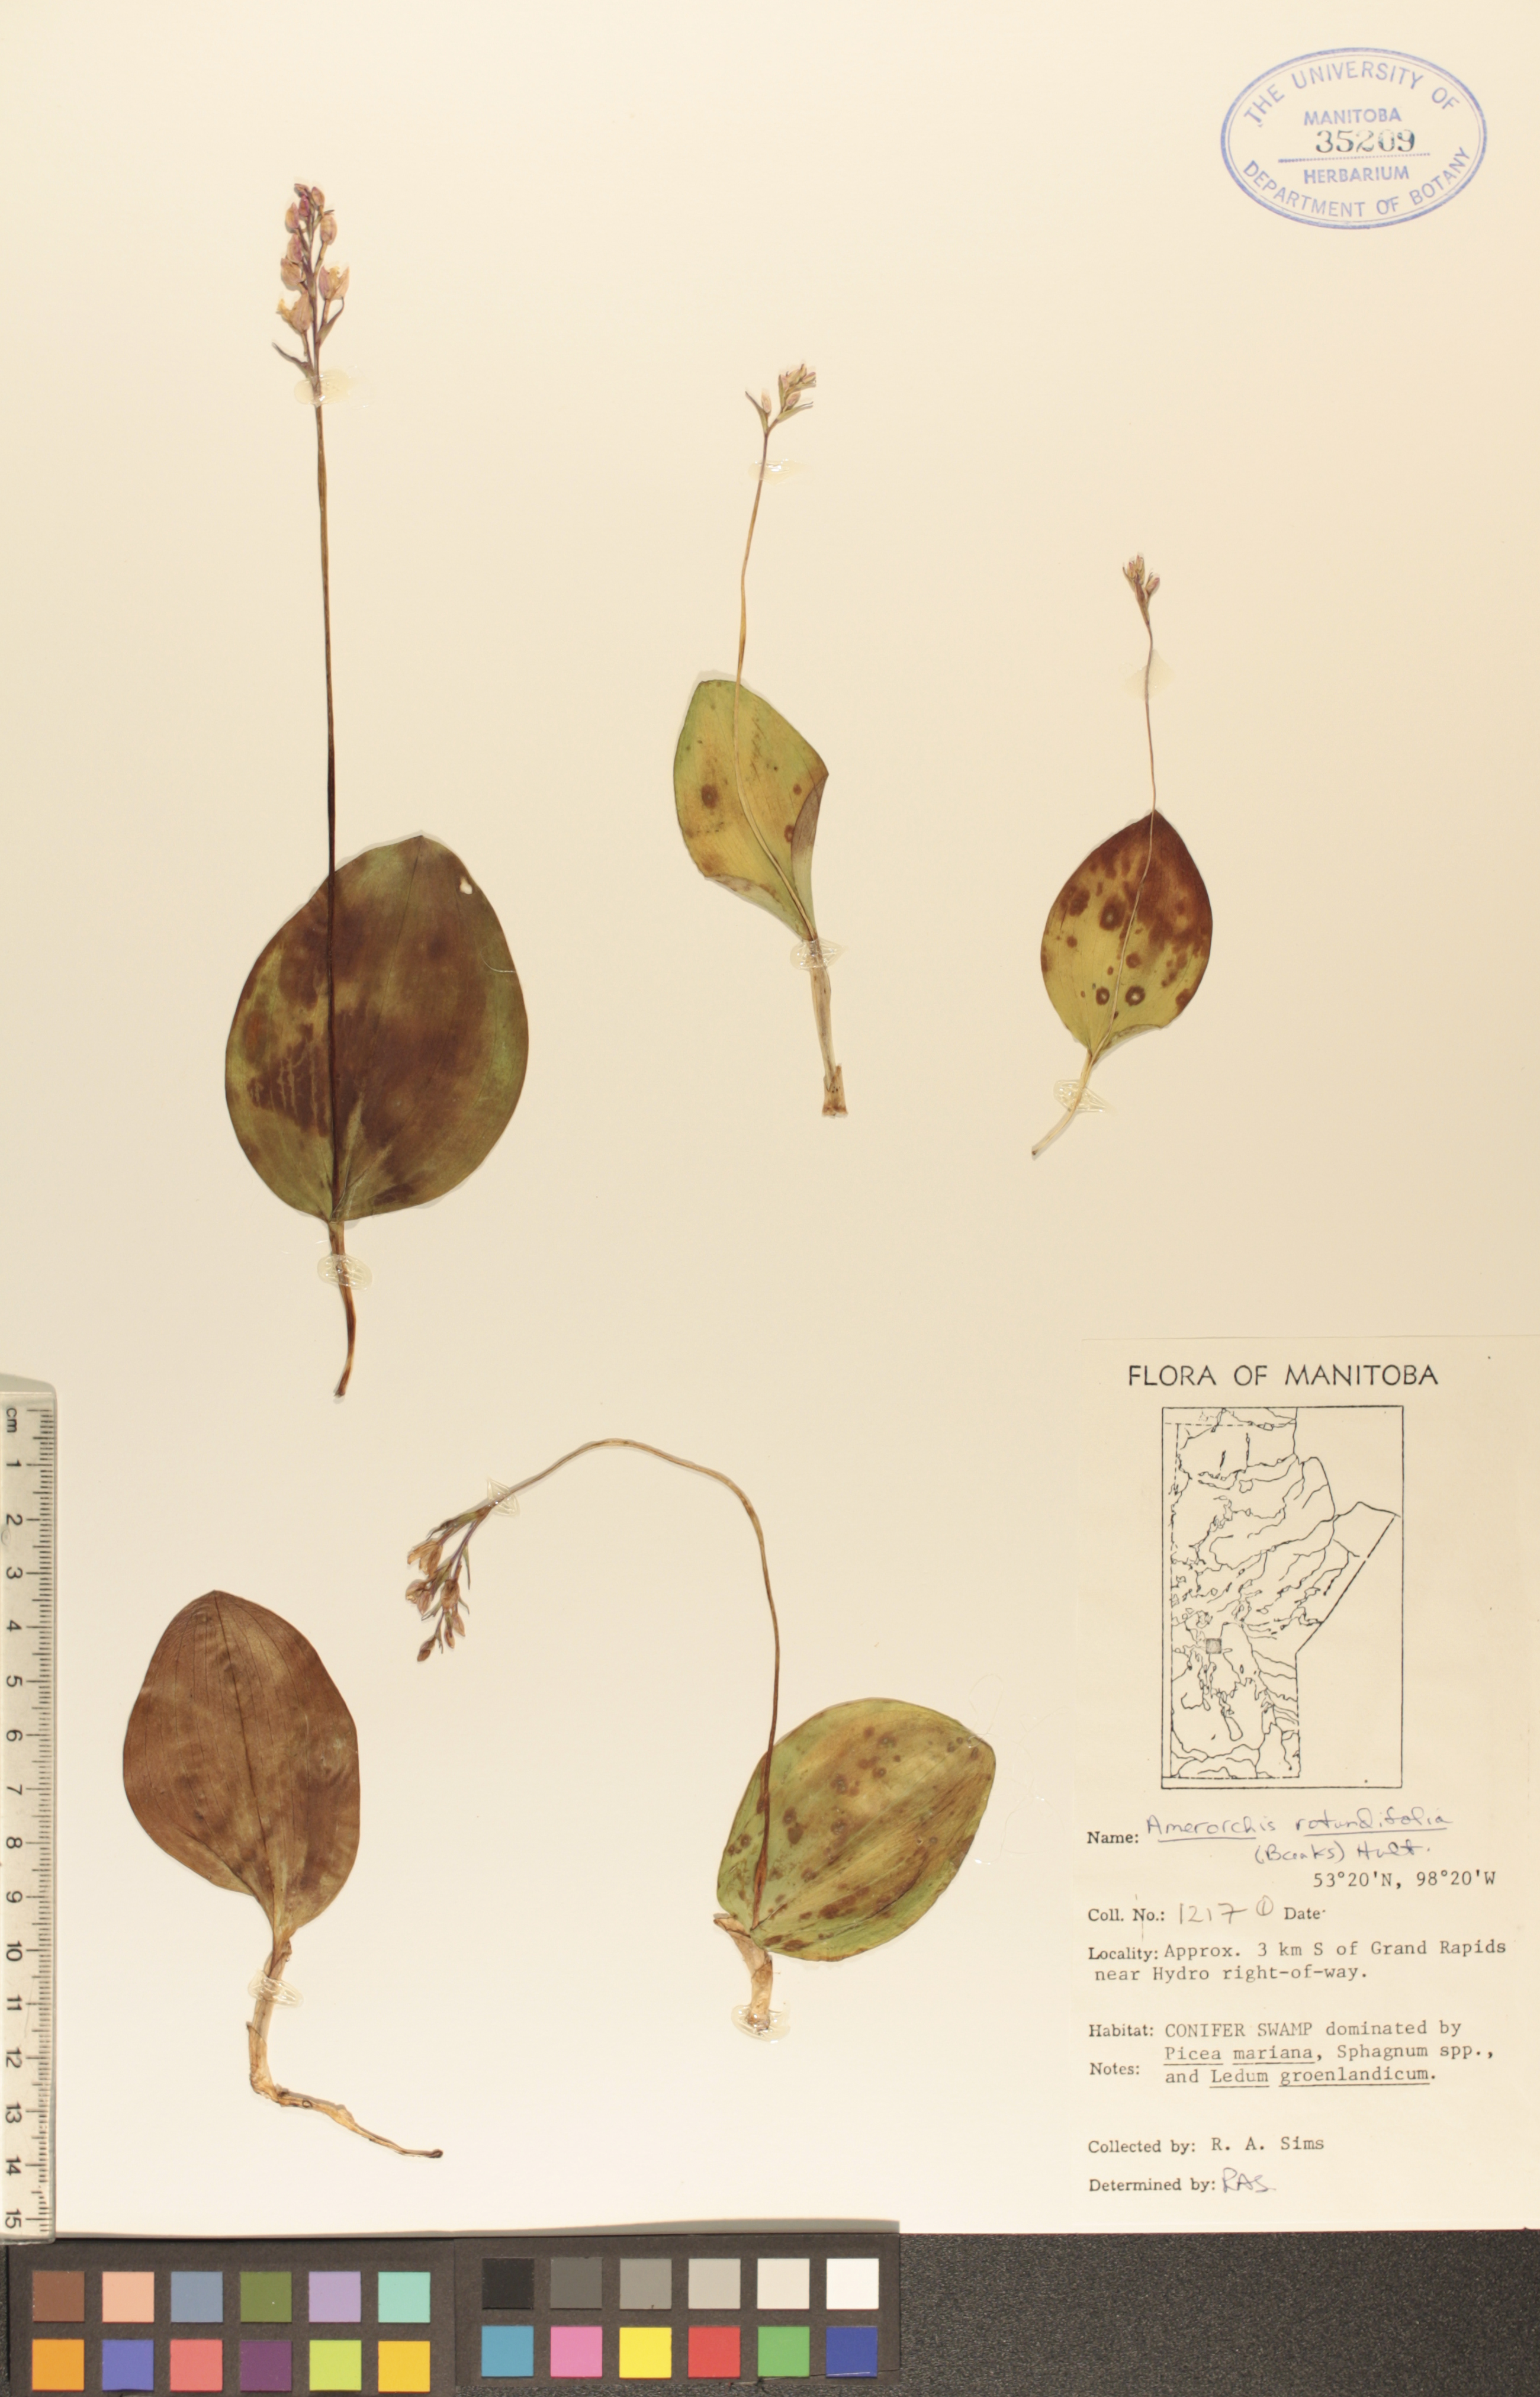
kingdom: Plantae
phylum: Tracheophyta
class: Liliopsida
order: Asparagales
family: Orchidaceae
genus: Galearis
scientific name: Galearis rotundifolia
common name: One-leaved orchis
